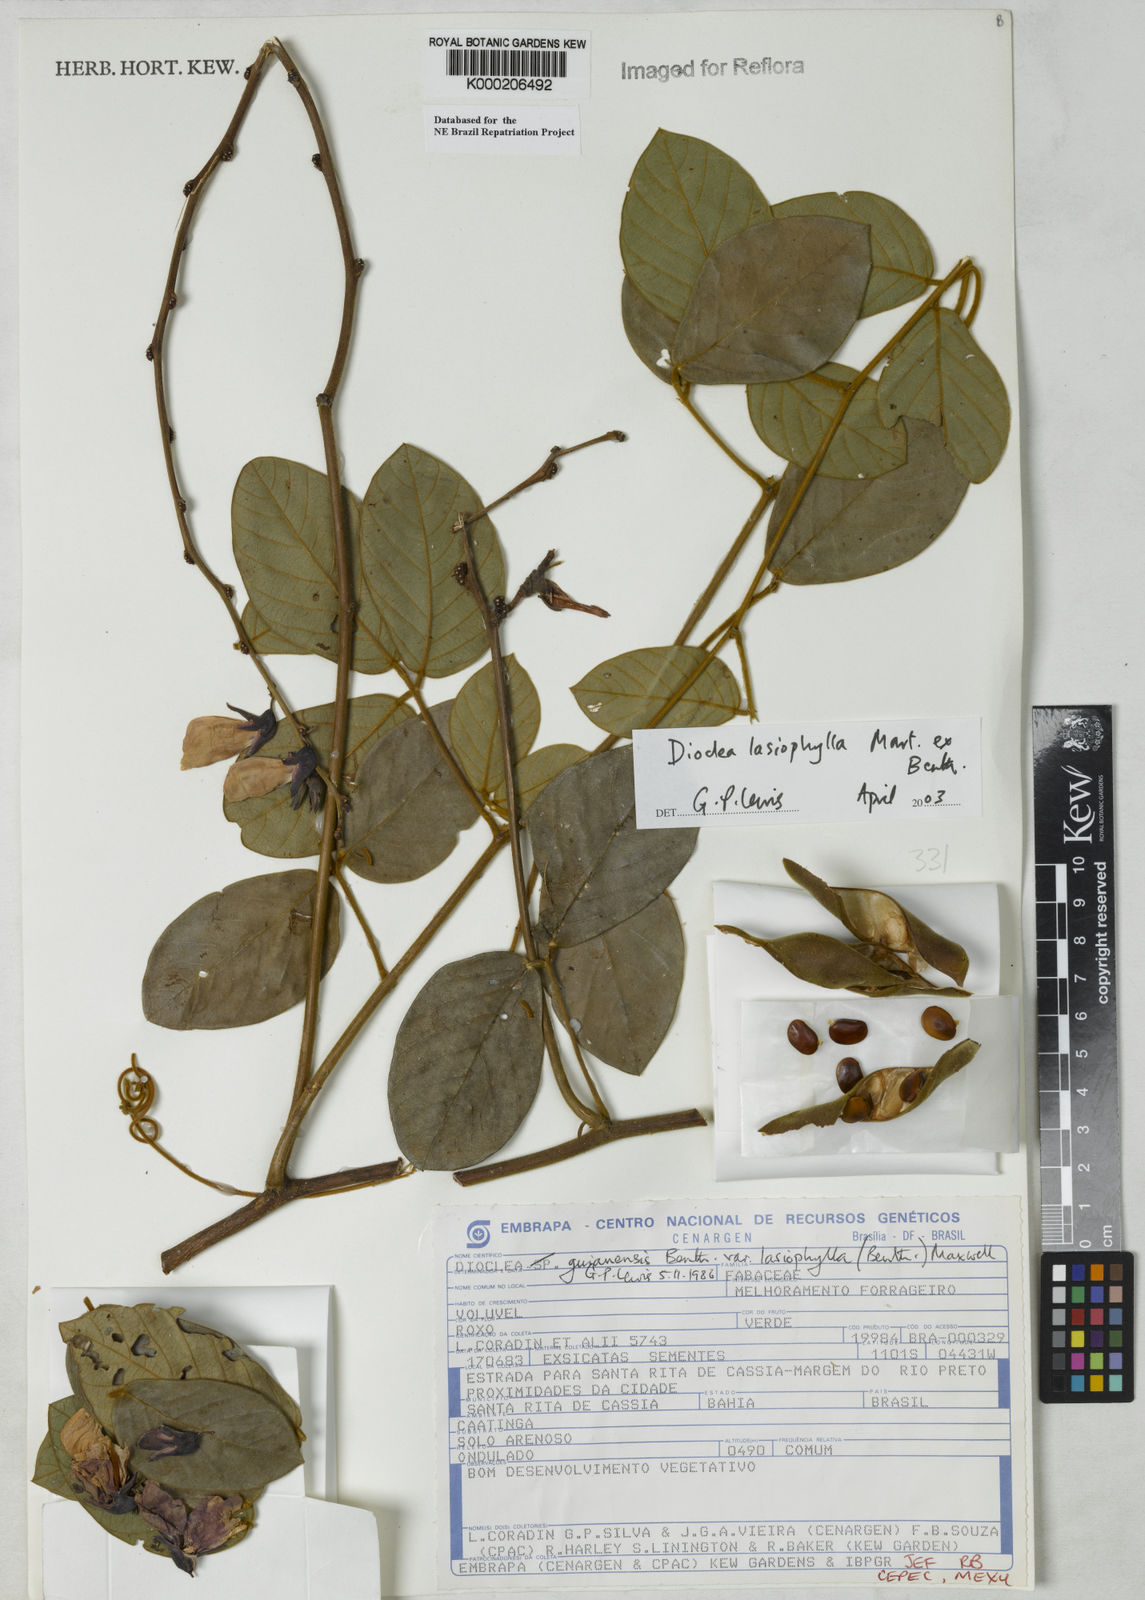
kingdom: Plantae
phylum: Tracheophyta
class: Magnoliopsida
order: Fabales
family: Fabaceae
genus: Dioclea
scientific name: Dioclea virgata
